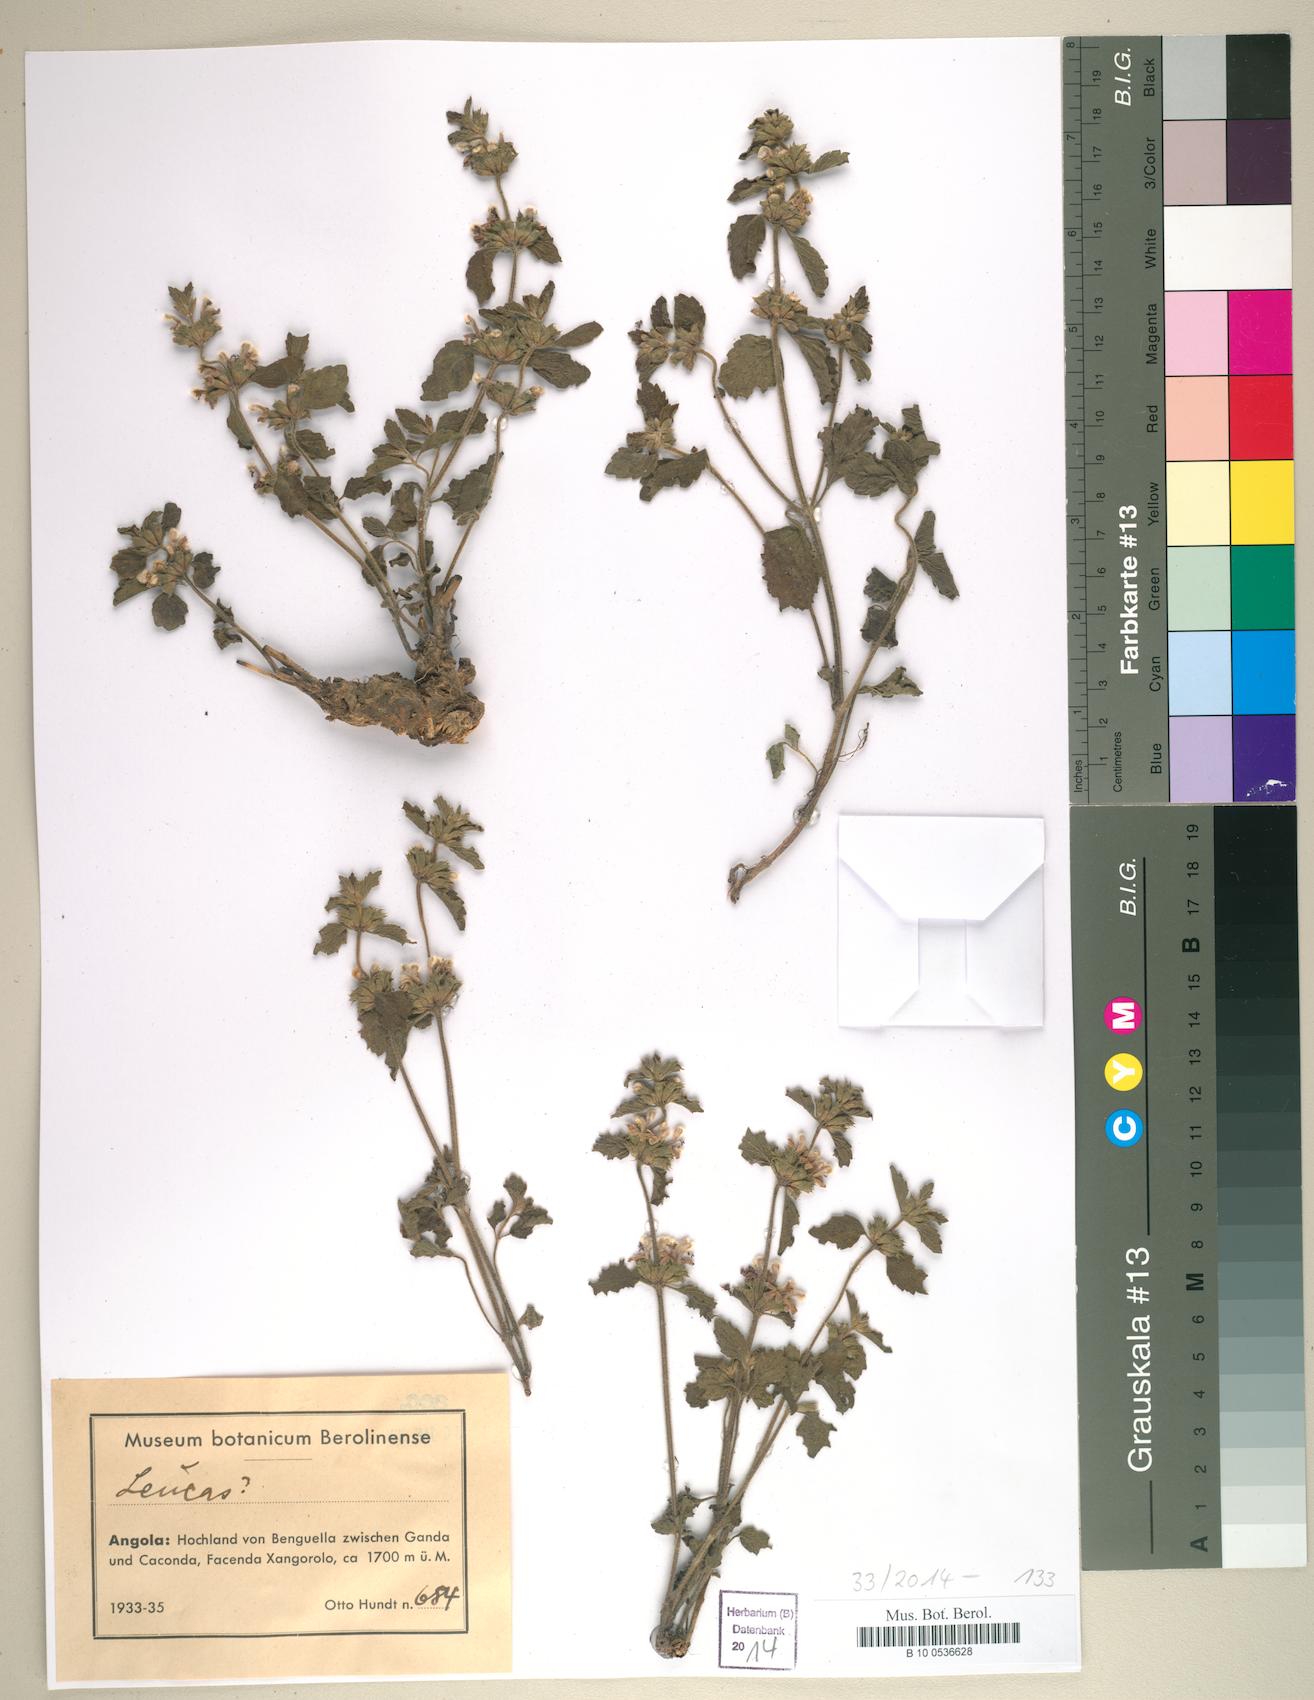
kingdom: Plantae
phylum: Tracheophyta
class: Magnoliopsida
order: Lamiales
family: Lamiaceae
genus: Leucas
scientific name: Leucas
